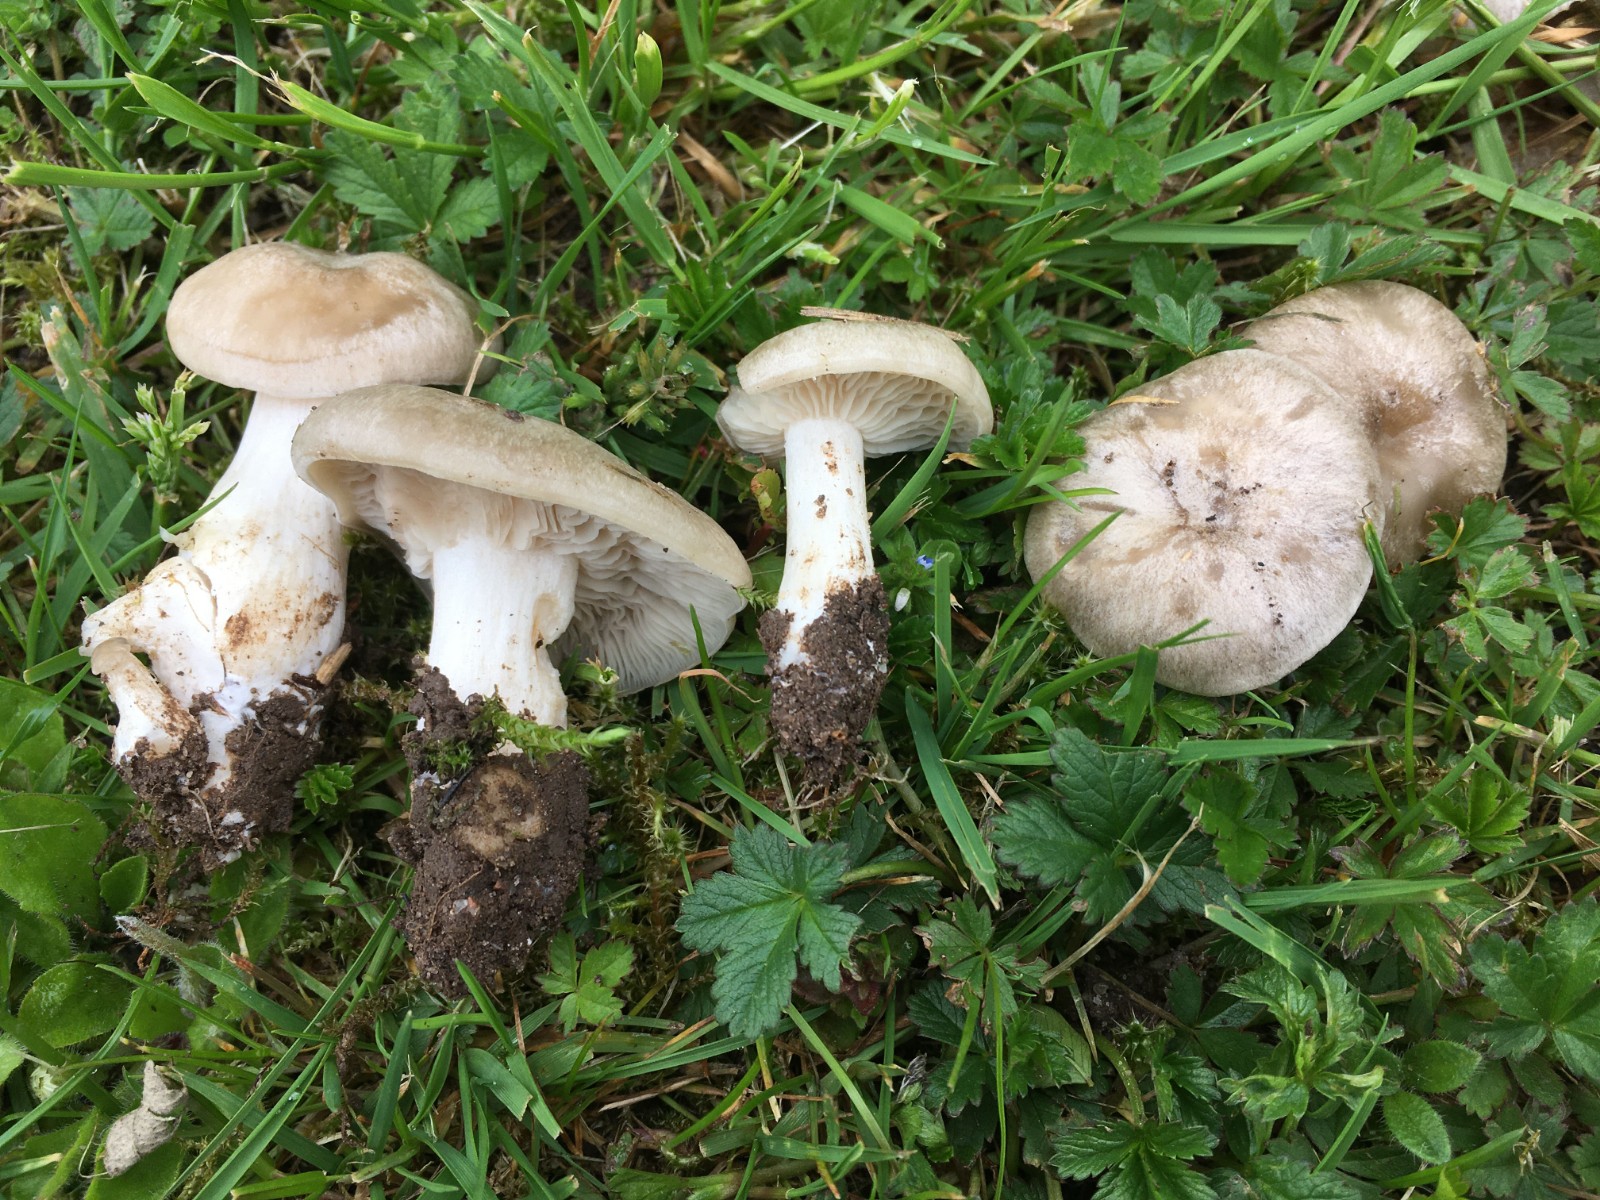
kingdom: Fungi
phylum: Basidiomycota
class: Agaricomycetes
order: Agaricales
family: Entolomataceae
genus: Entoloma
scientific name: Entoloma clypeatum
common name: flammet rødblad
